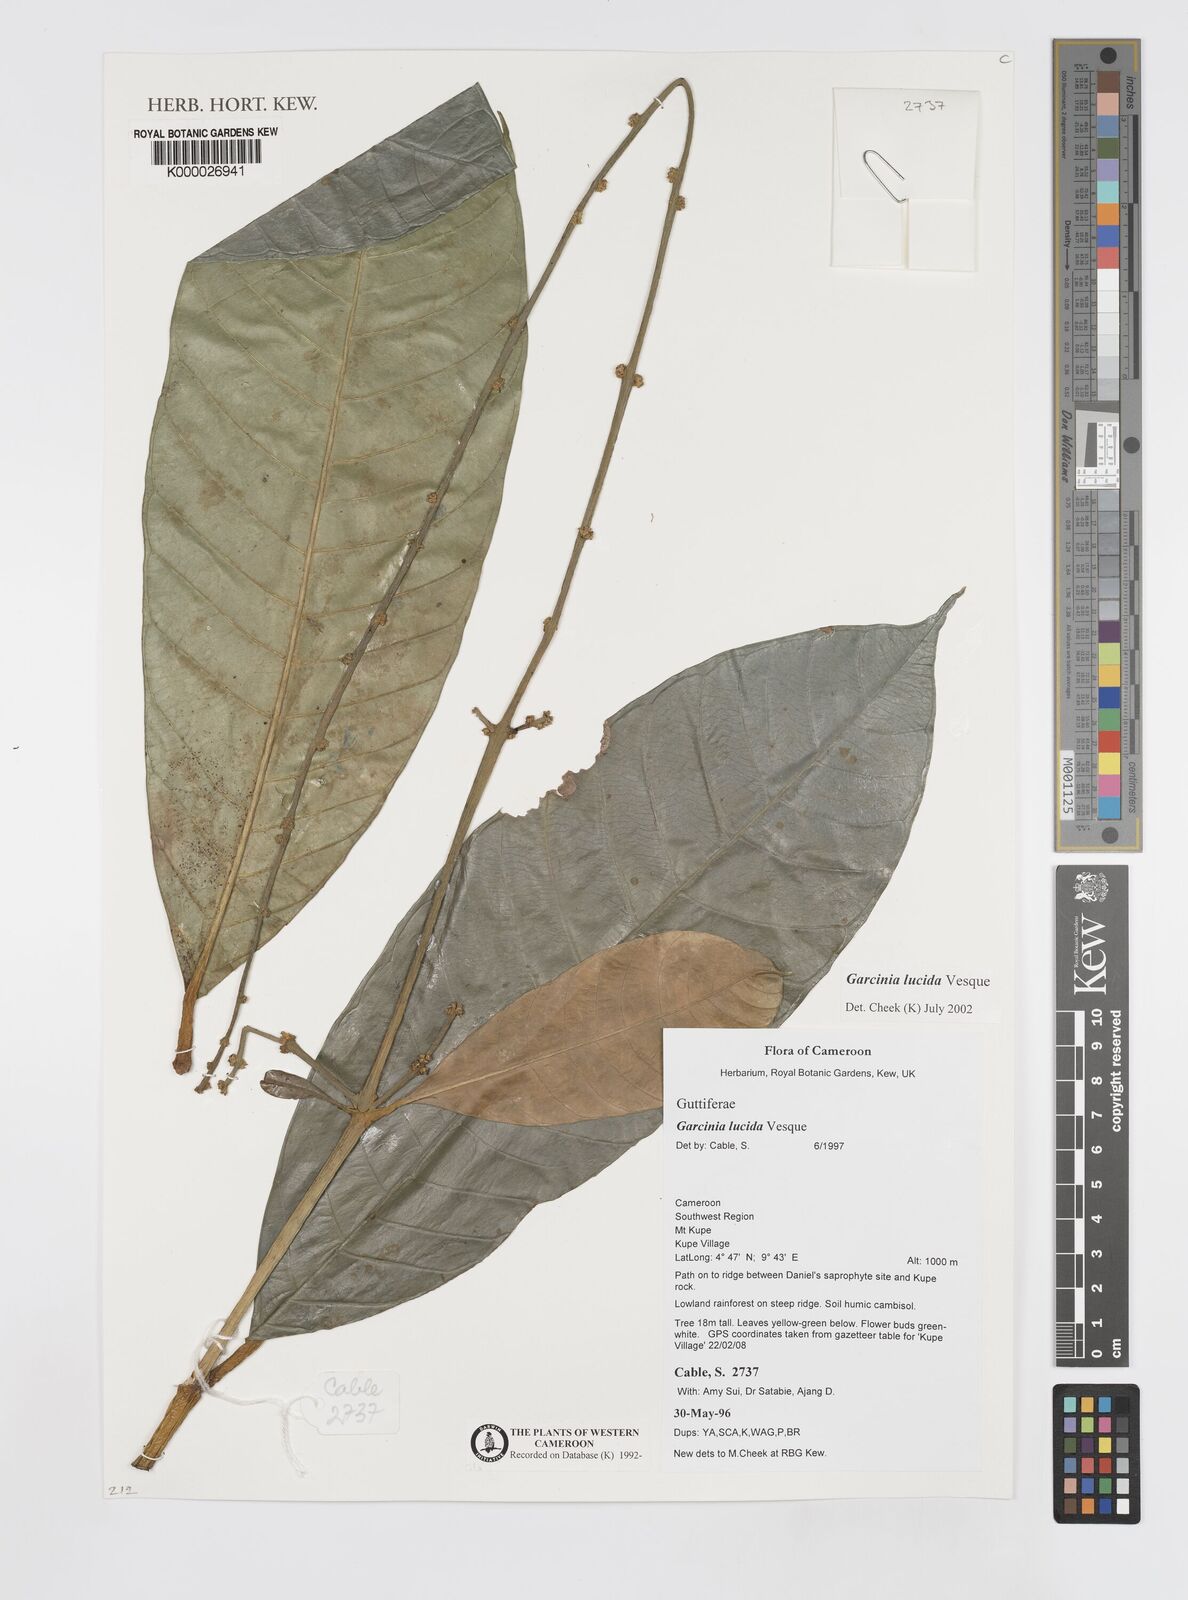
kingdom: Plantae
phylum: Tracheophyta
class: Magnoliopsida
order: Malpighiales
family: Clusiaceae
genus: Garcinia
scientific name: Garcinia lucida
